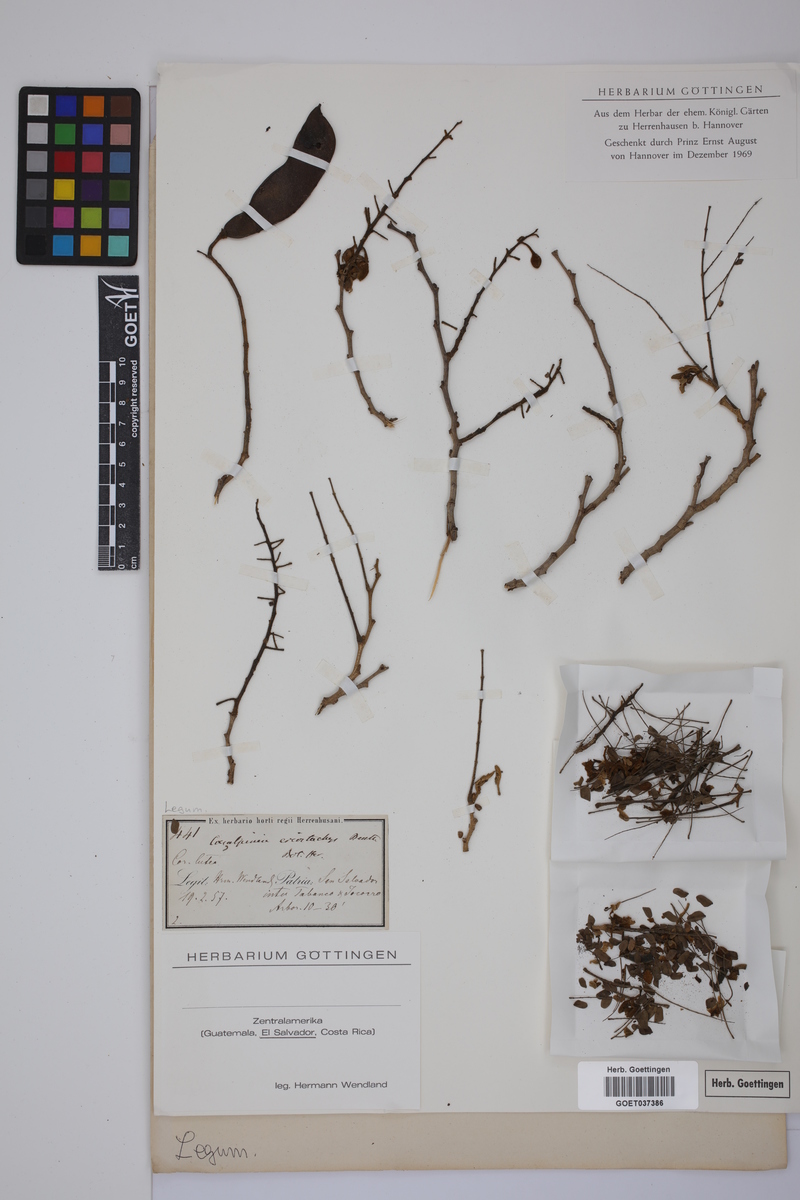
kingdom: Plantae
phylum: Tracheophyta
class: Magnoliopsida
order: Fabales
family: Fabaceae
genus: Cenostigma
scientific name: Cenostigma eriostachys
